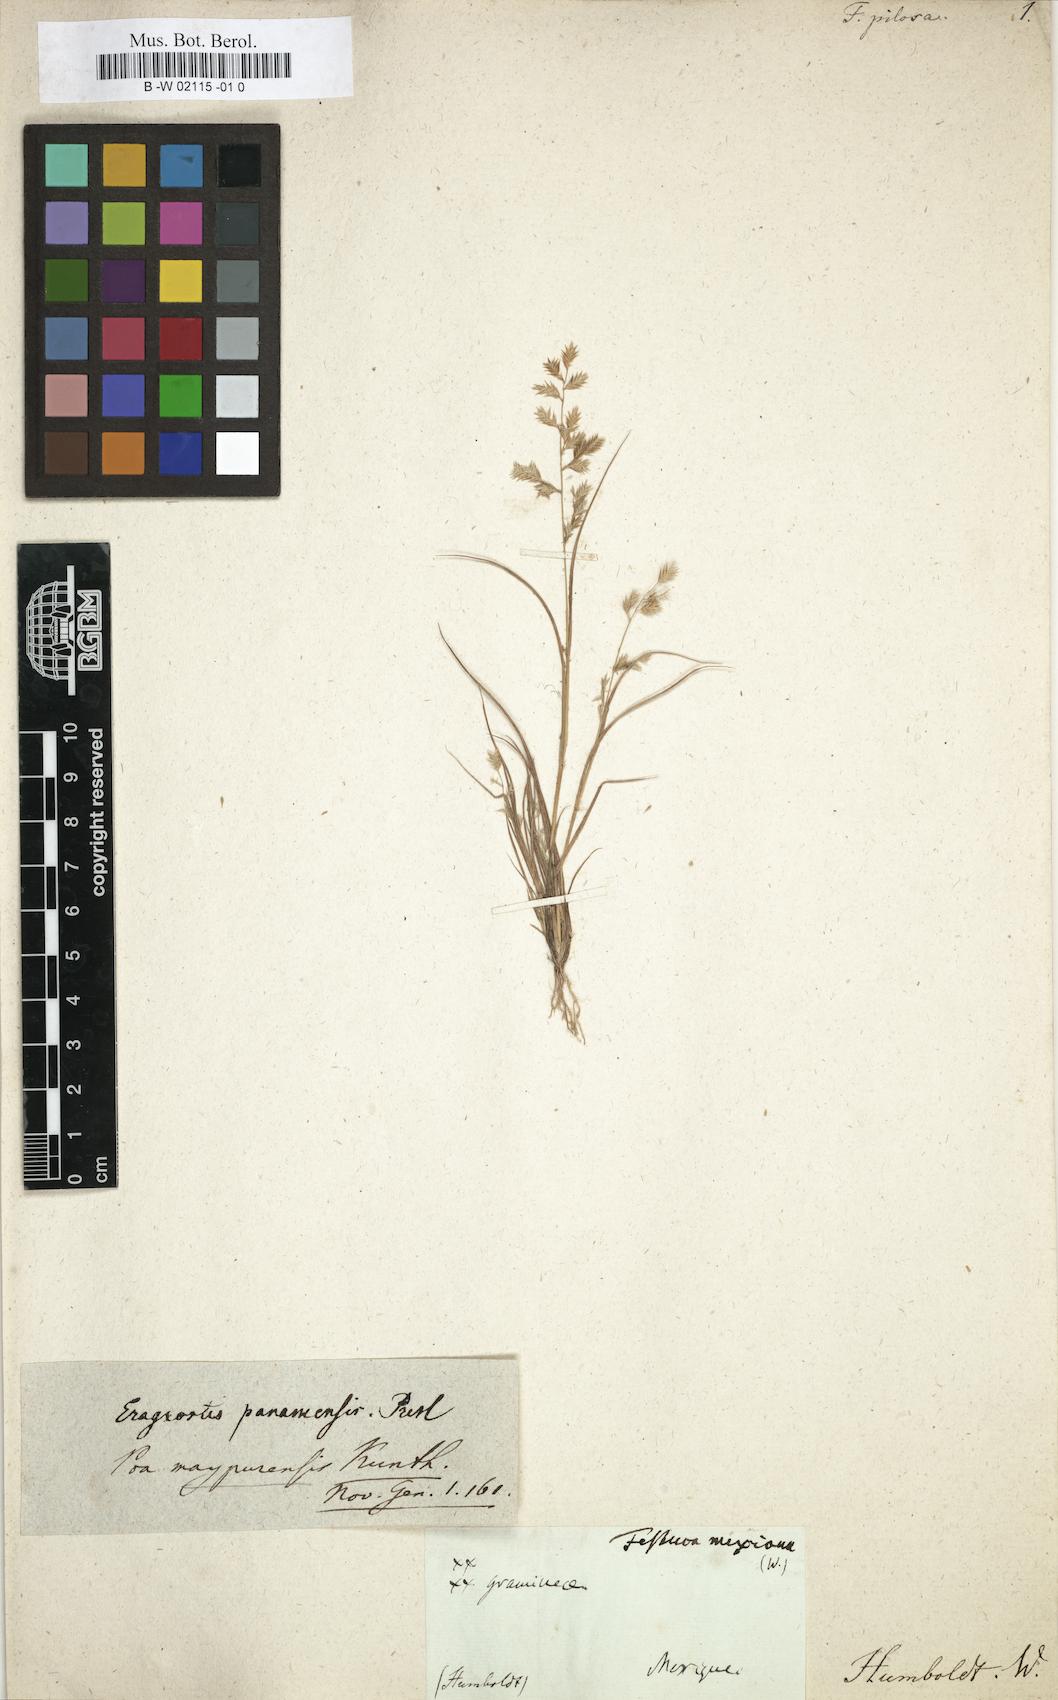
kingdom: Plantae
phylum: Tracheophyta
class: Liliopsida
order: Poales
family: Poaceae
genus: Eragrostis
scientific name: Eragrostis maypurensis
